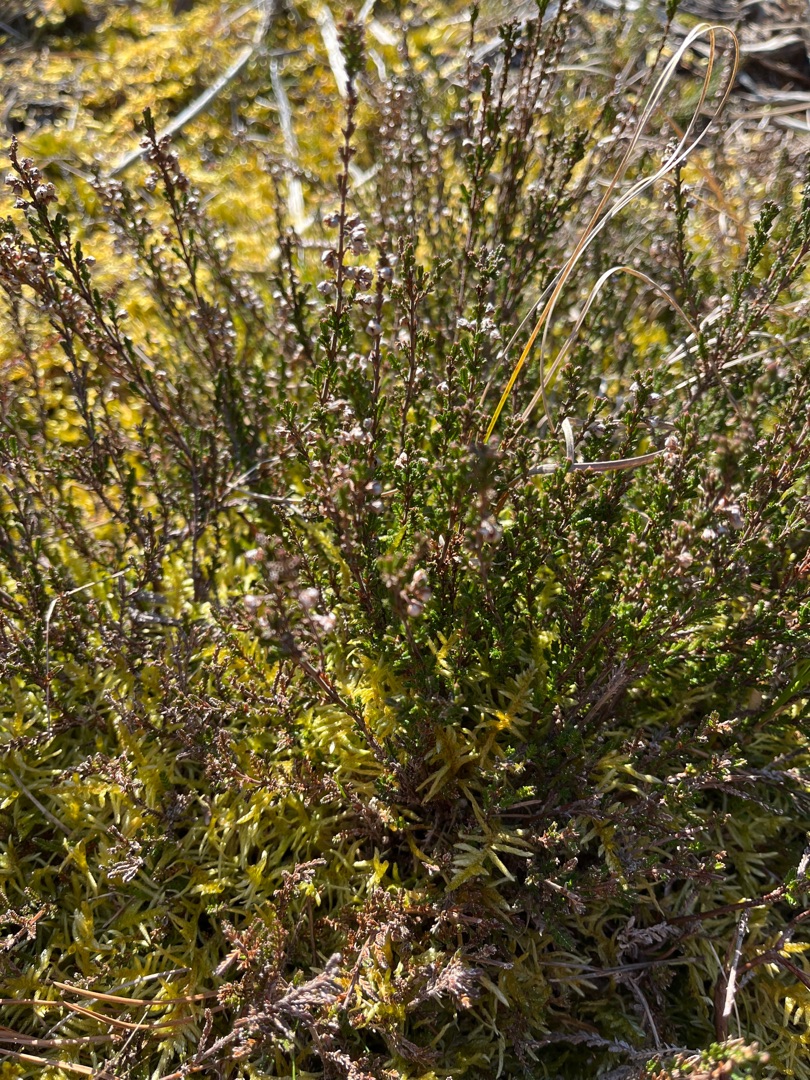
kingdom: Plantae
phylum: Tracheophyta
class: Magnoliopsida
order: Ericales
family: Ericaceae
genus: Calluna
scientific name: Calluna vulgaris
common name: Hedelyng
